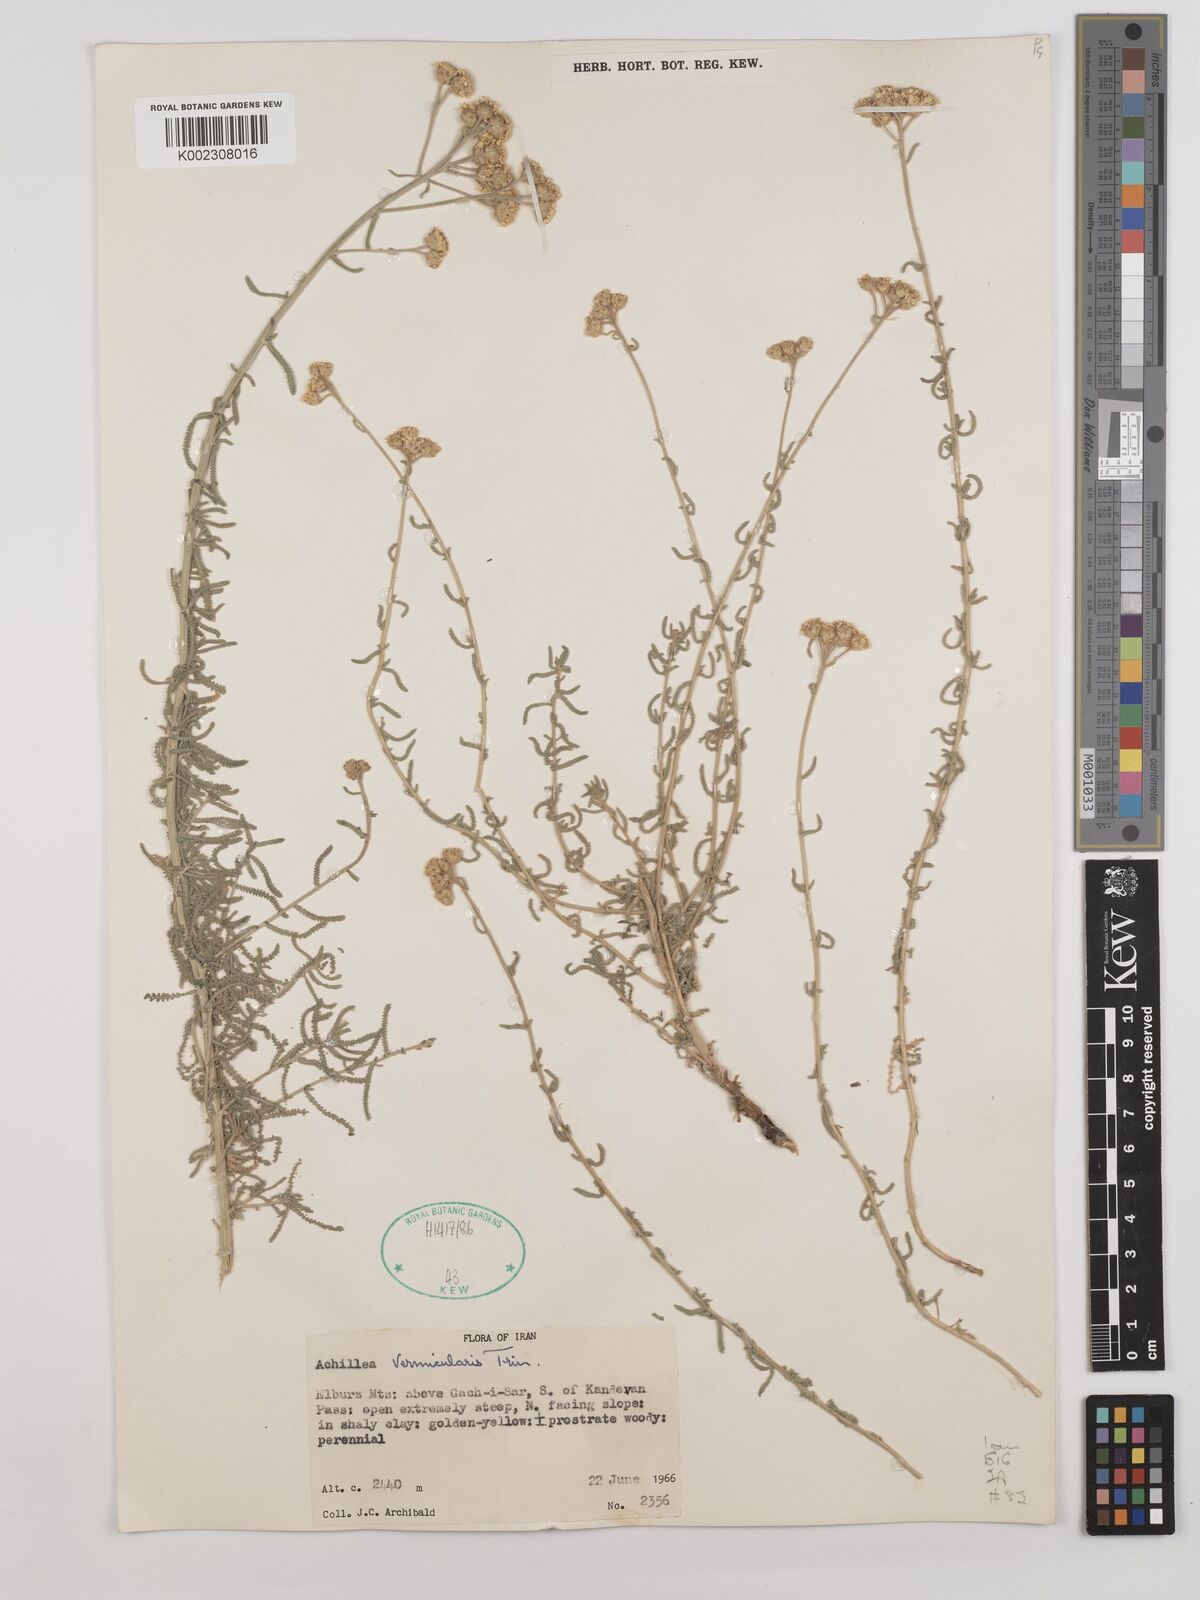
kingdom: Plantae
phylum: Tracheophyta
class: Magnoliopsida
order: Asterales
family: Asteraceae
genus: Achillea
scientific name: Achillea vermicularis
